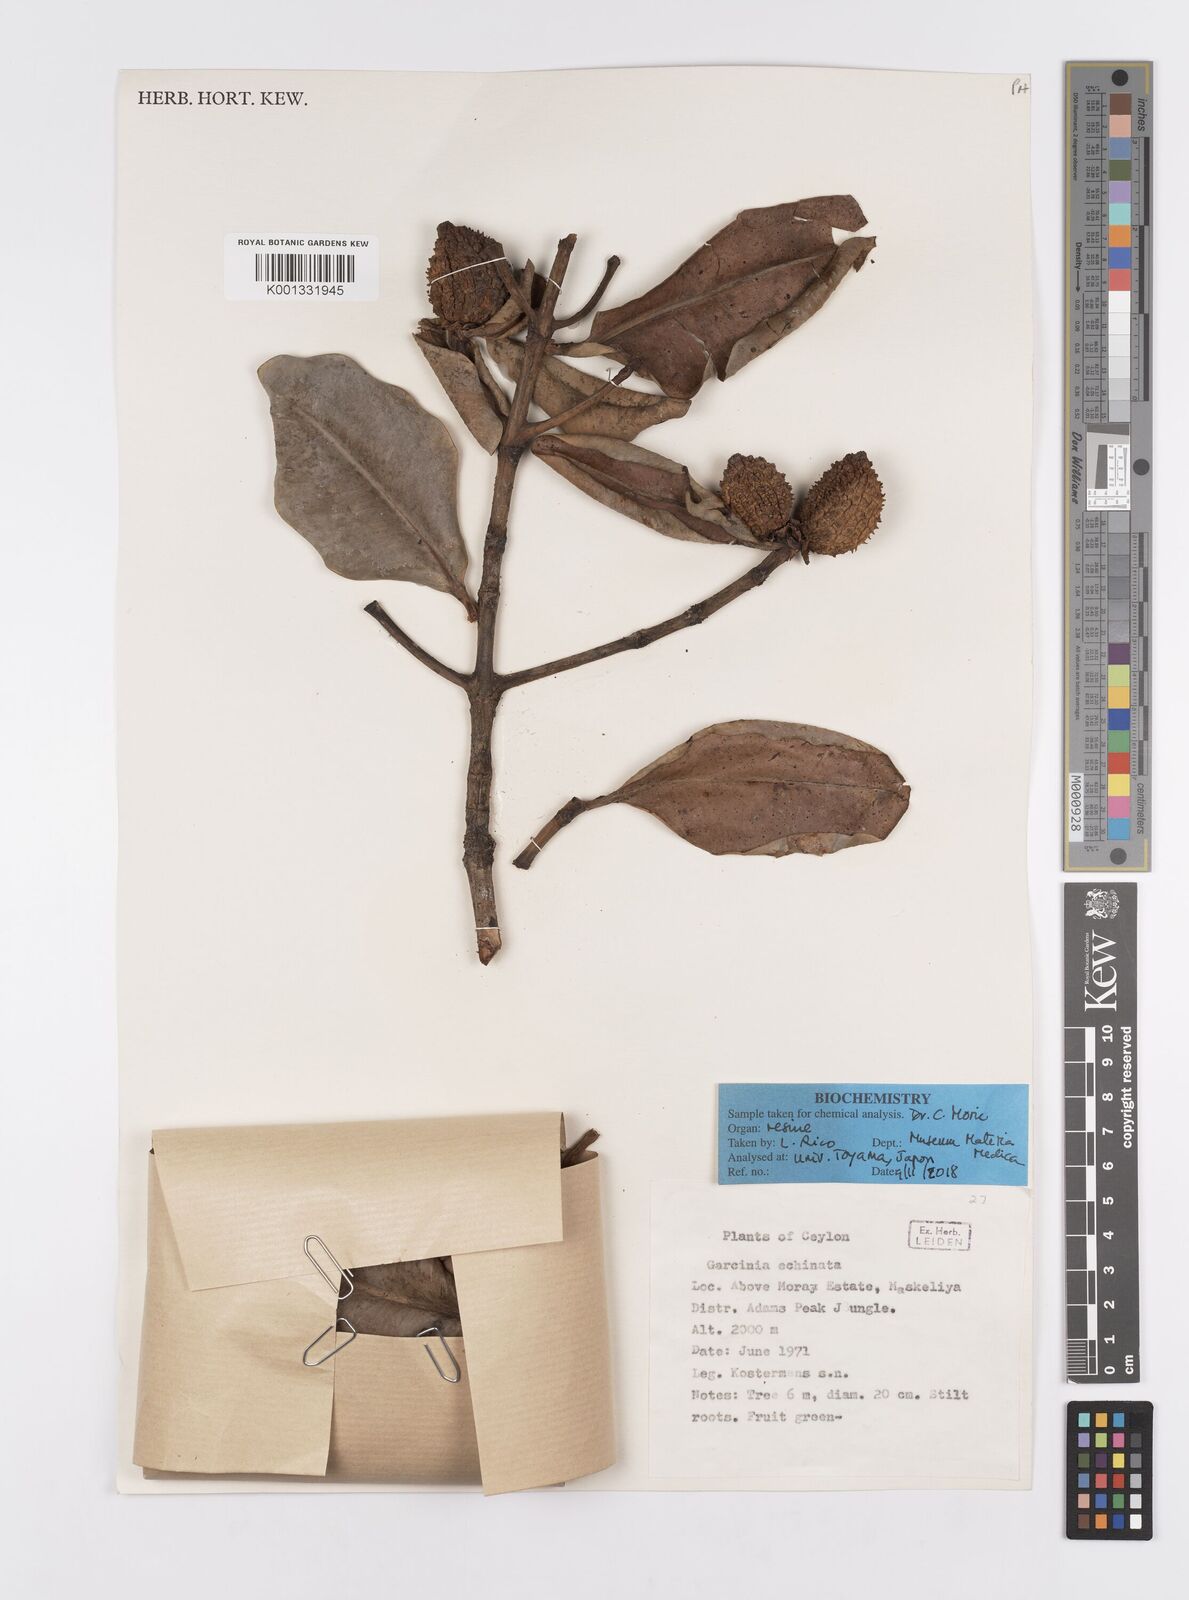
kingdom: Plantae
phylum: Tracheophyta
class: Magnoliopsida
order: Malpighiales
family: Clusiaceae
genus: Garcinia
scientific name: Garcinia echinocarpa
